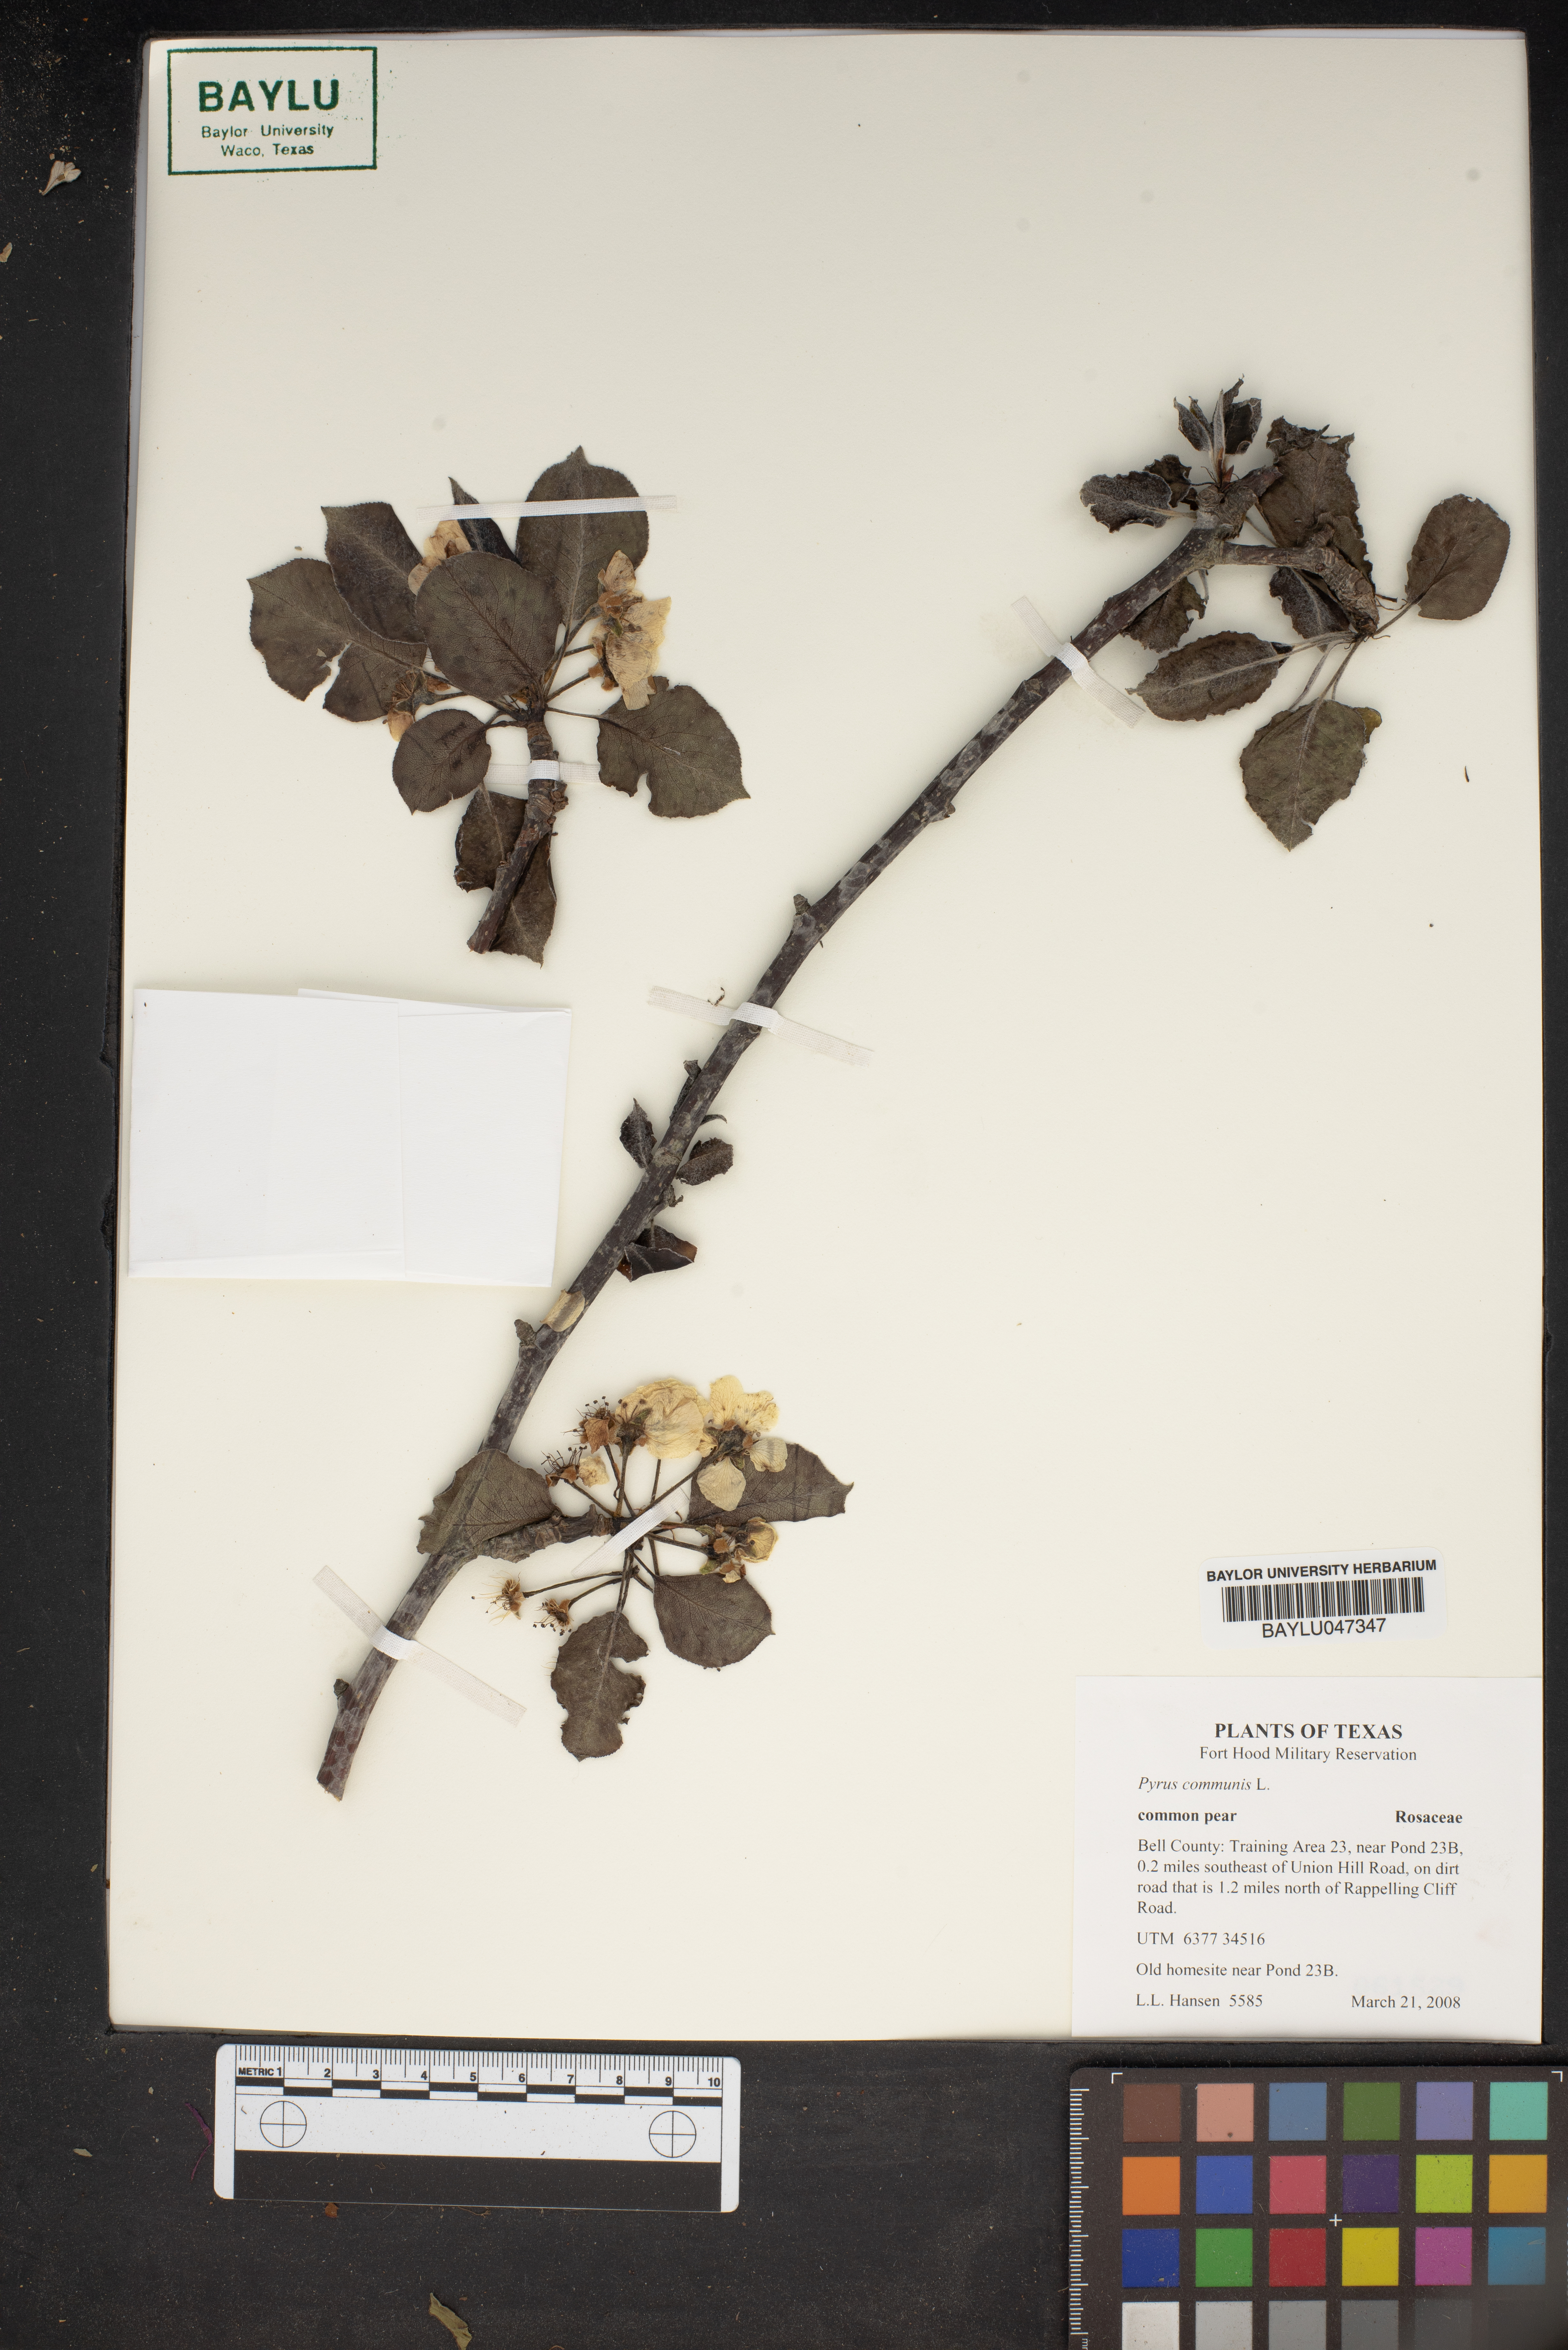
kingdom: Plantae
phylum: Tracheophyta
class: Magnoliopsida
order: Rosales
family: Rosaceae
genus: Pyrus
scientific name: Pyrus communis
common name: Pear
